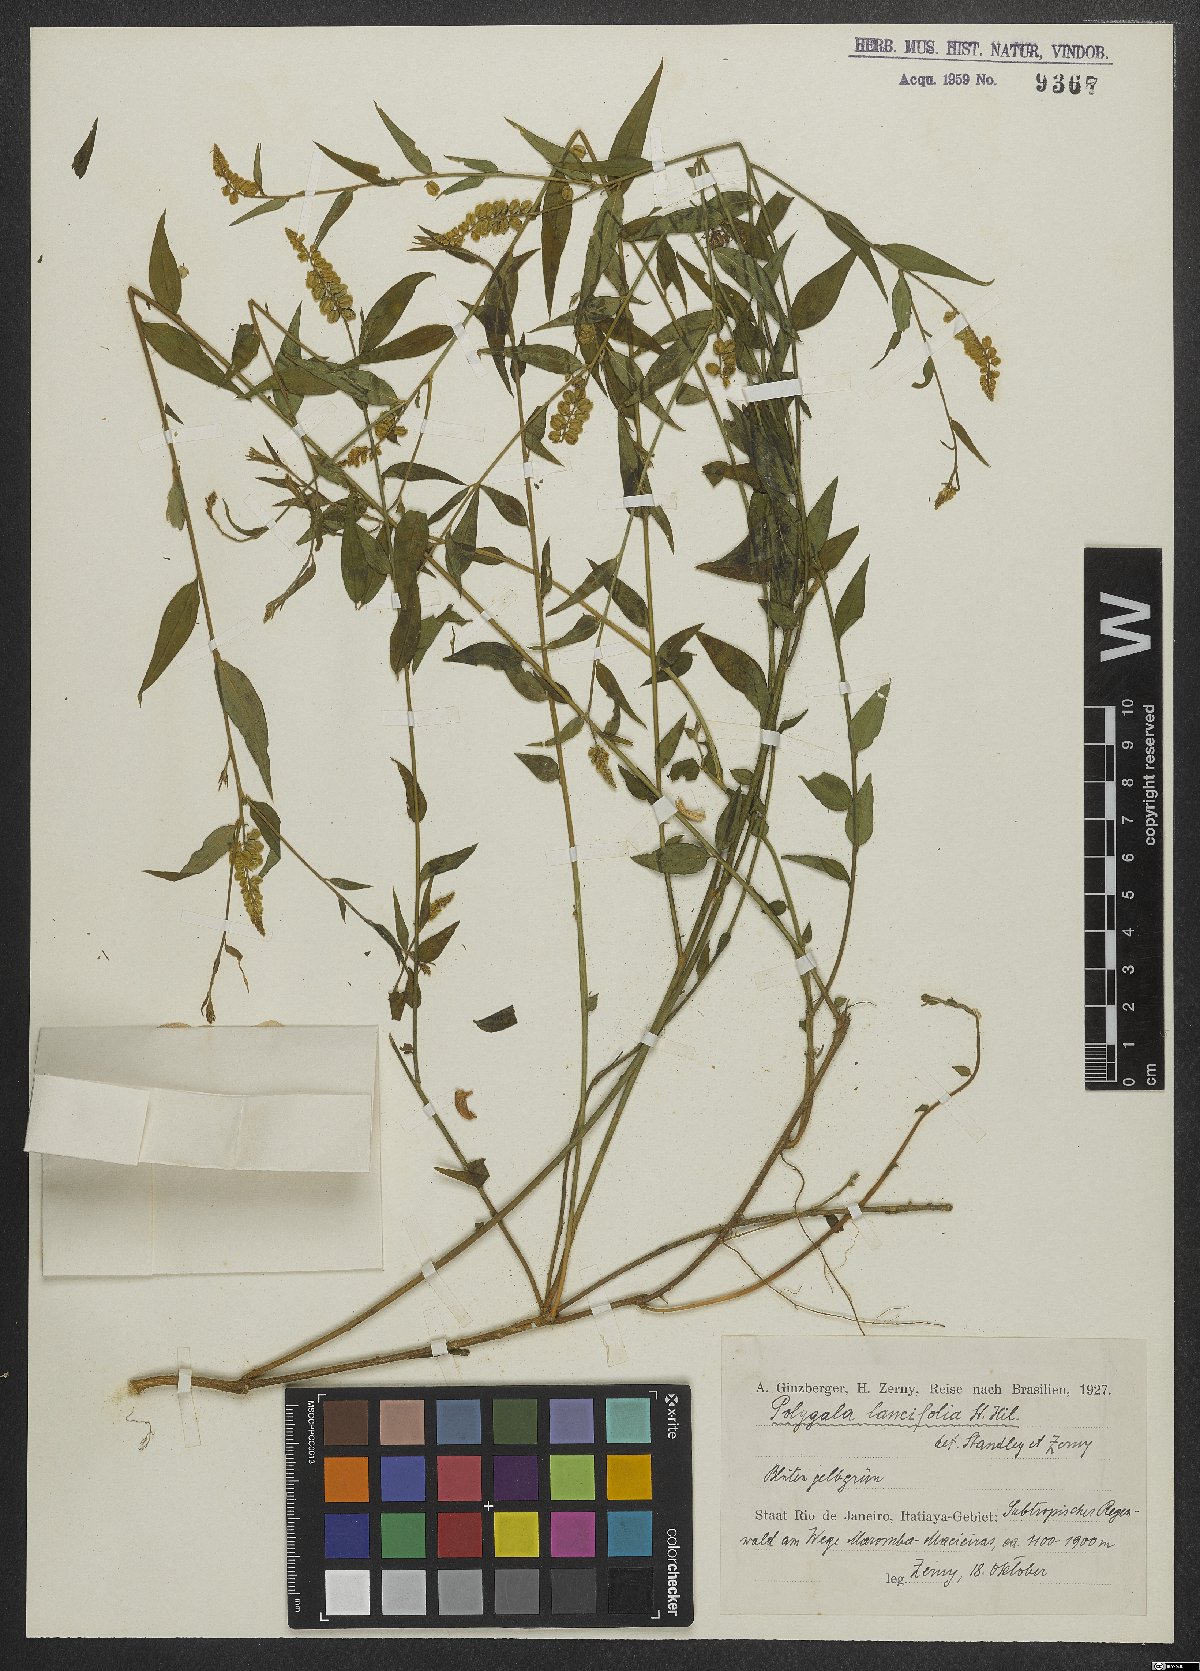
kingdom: Plantae
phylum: Tracheophyta
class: Magnoliopsida
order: Fabales
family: Polygalaceae
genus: Polygala
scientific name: Polygala lancifolia
